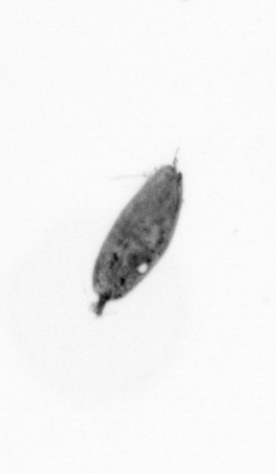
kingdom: Animalia
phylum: Arthropoda
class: Maxillopoda
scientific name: Maxillopoda
